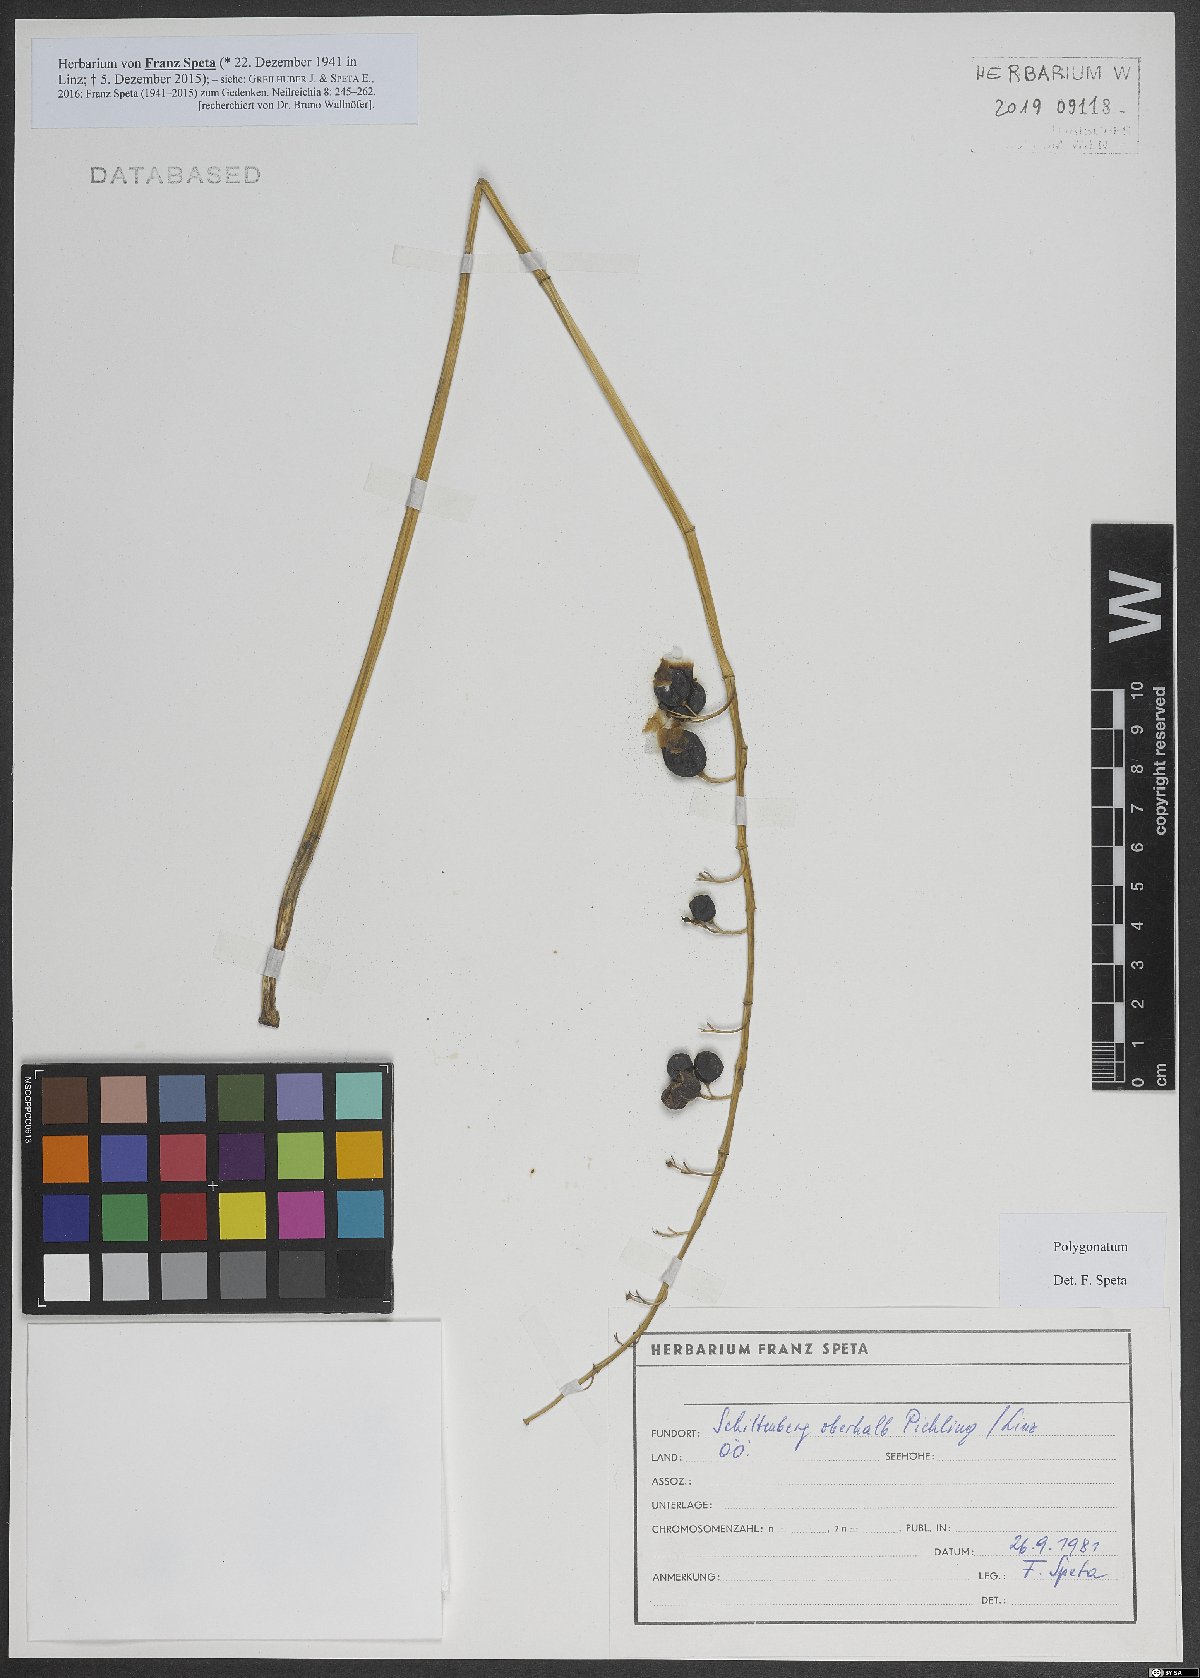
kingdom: Plantae
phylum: Tracheophyta
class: Liliopsida
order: Asparagales
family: Asparagaceae
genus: Polygonatum
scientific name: Polygonatum
